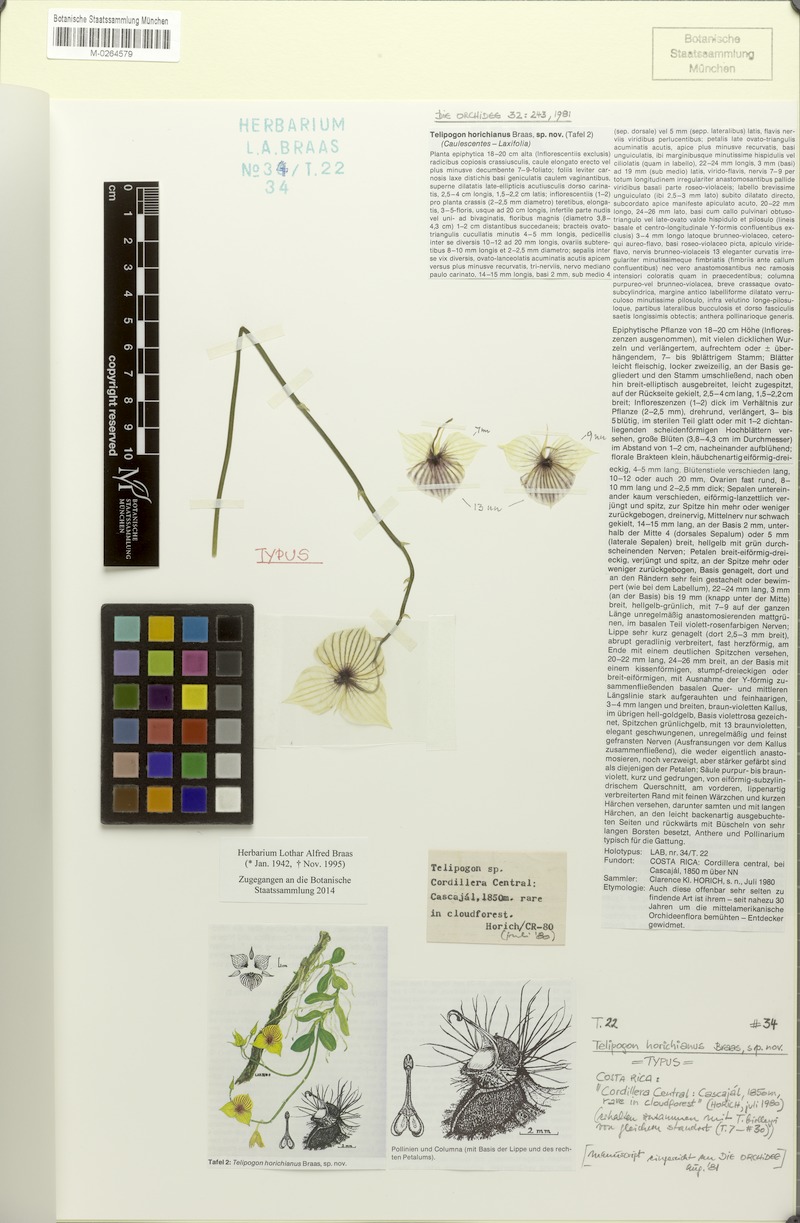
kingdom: Plantae
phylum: Tracheophyta
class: Liliopsida
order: Asparagales
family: Orchidaceae
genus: Telipogon
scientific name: Telipogon gracilipes
